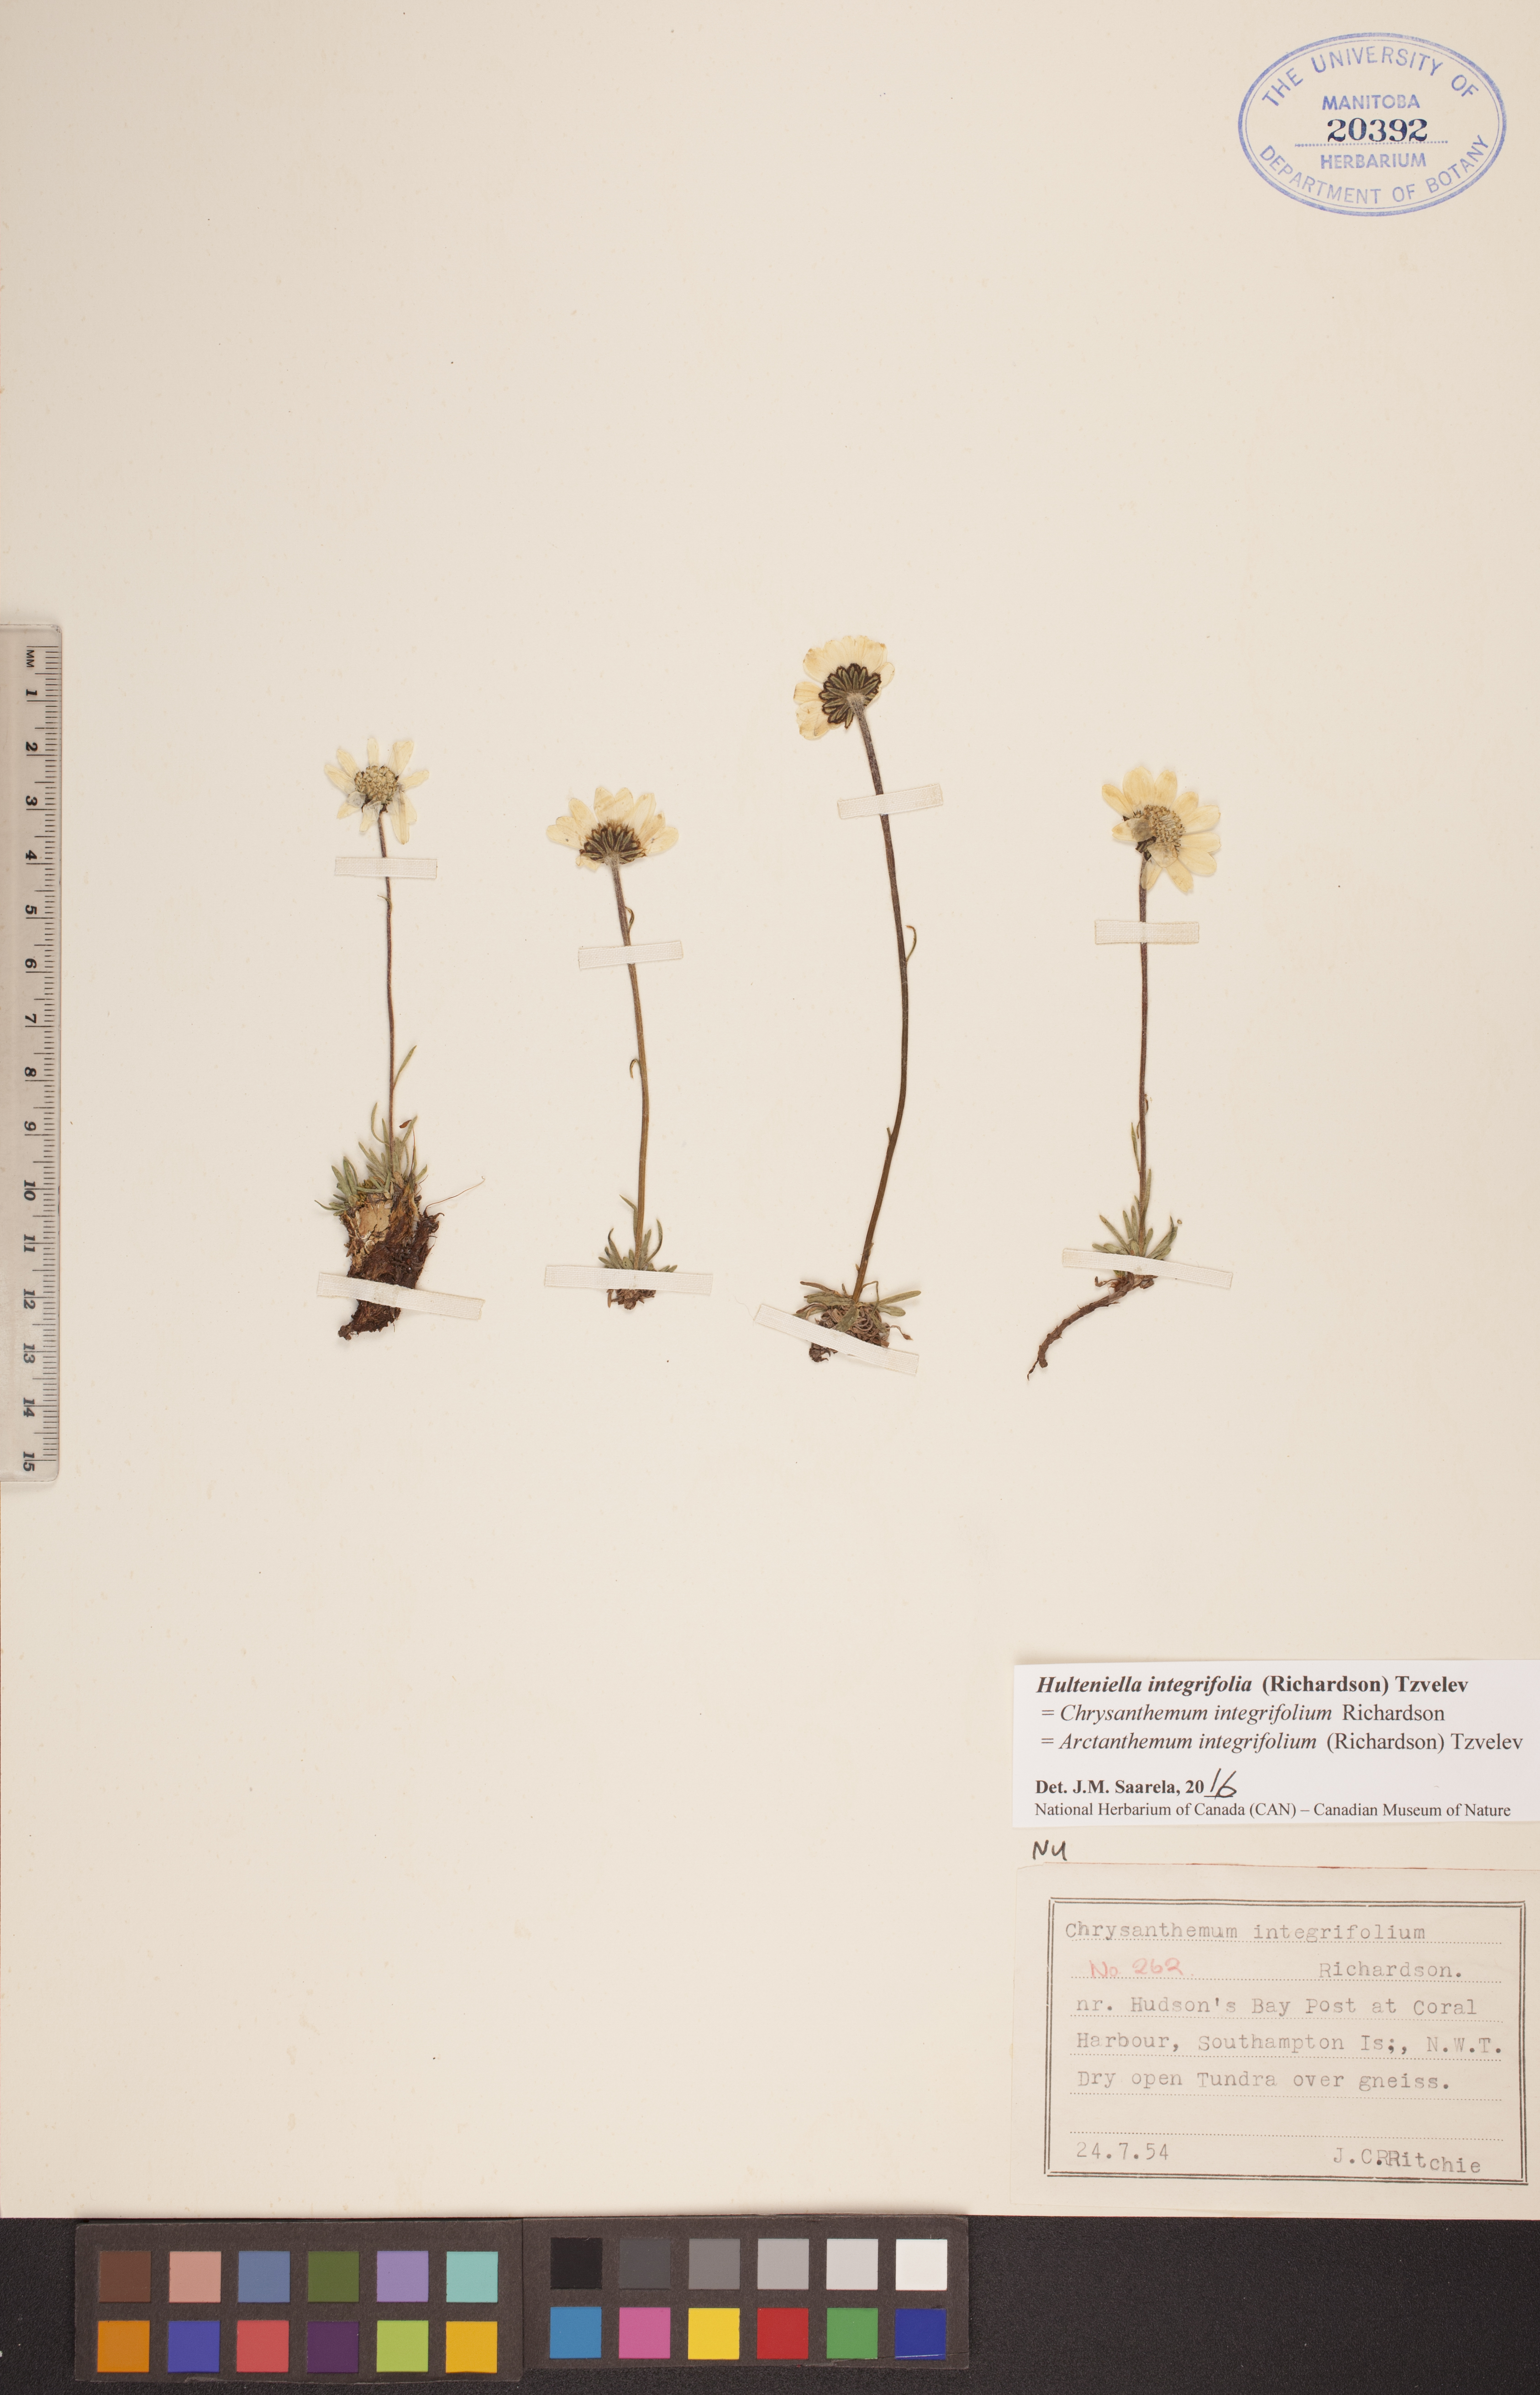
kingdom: Plantae
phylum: Tracheophyta
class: Magnoliopsida
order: Asterales
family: Asteraceae
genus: Arctanthemum
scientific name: Arctanthemum integrifolium
